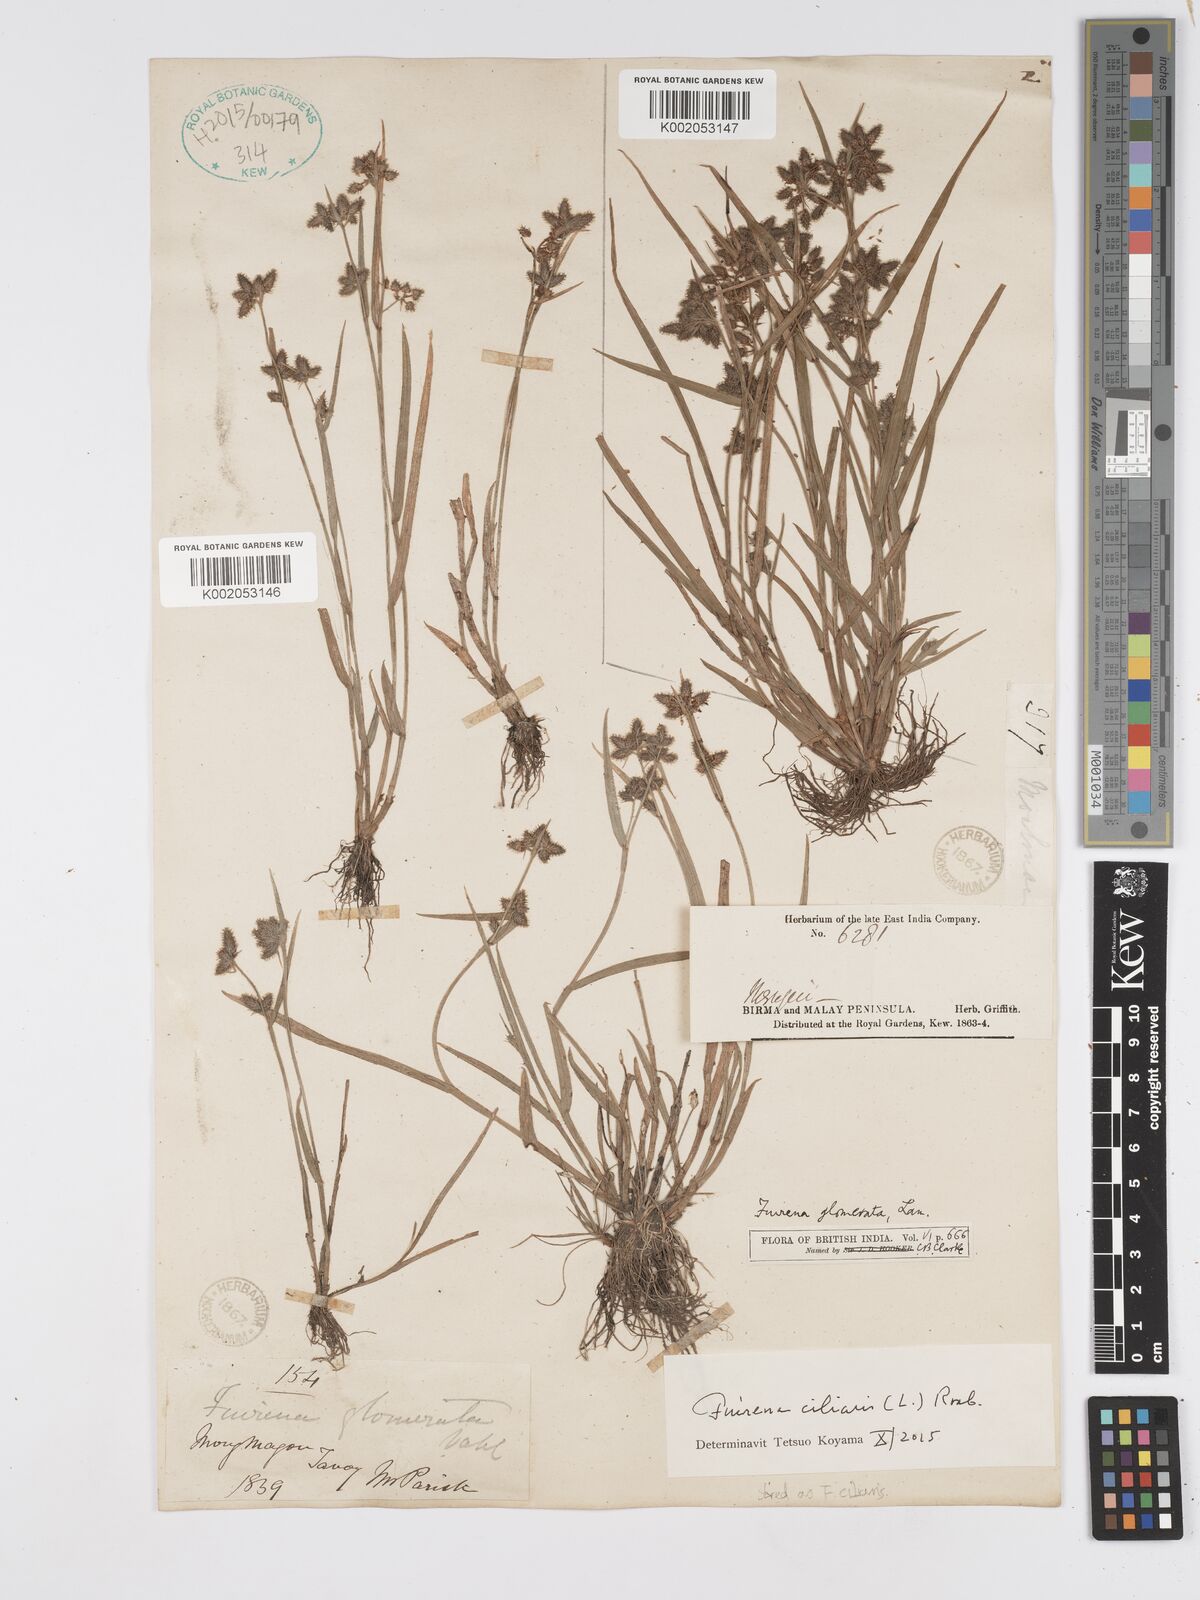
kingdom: Plantae
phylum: Tracheophyta
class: Liliopsida
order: Poales
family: Cyperaceae
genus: Fuirena
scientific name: Fuirena ciliaris
